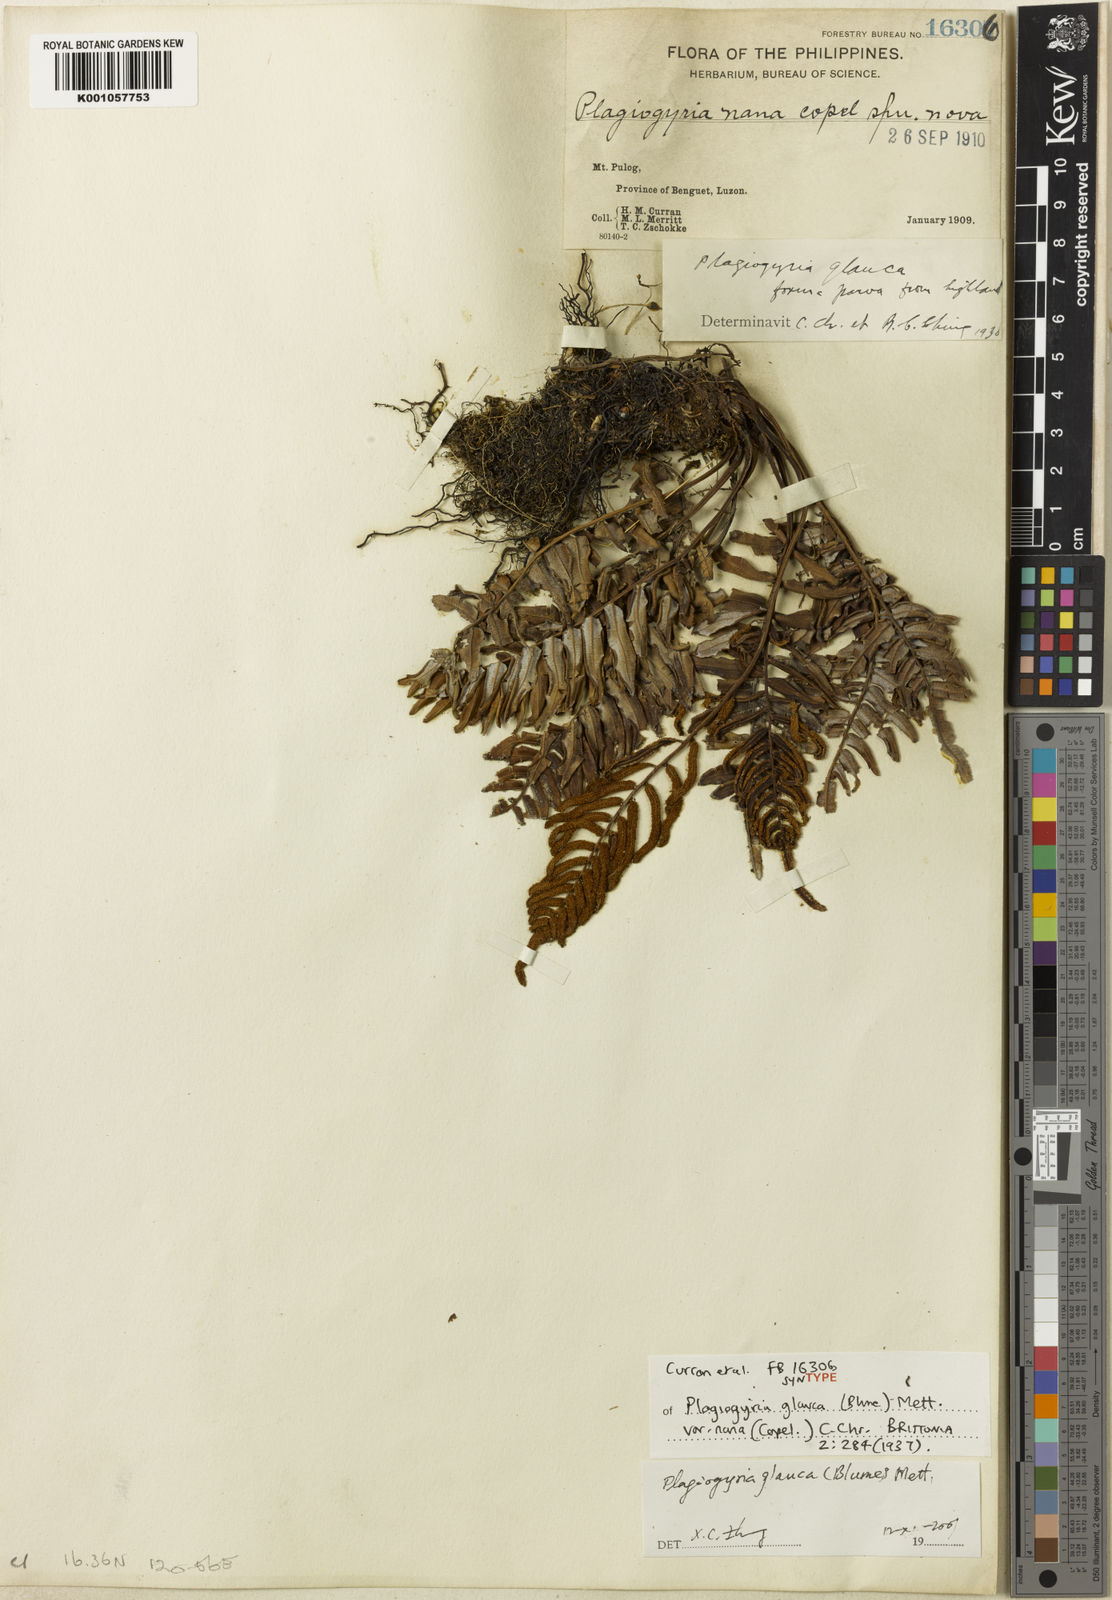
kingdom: Plantae
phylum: Tracheophyta
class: Polypodiopsida
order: Cyatheales
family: Plagiogyriaceae
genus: Plagiogyria
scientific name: Plagiogyria glauca
